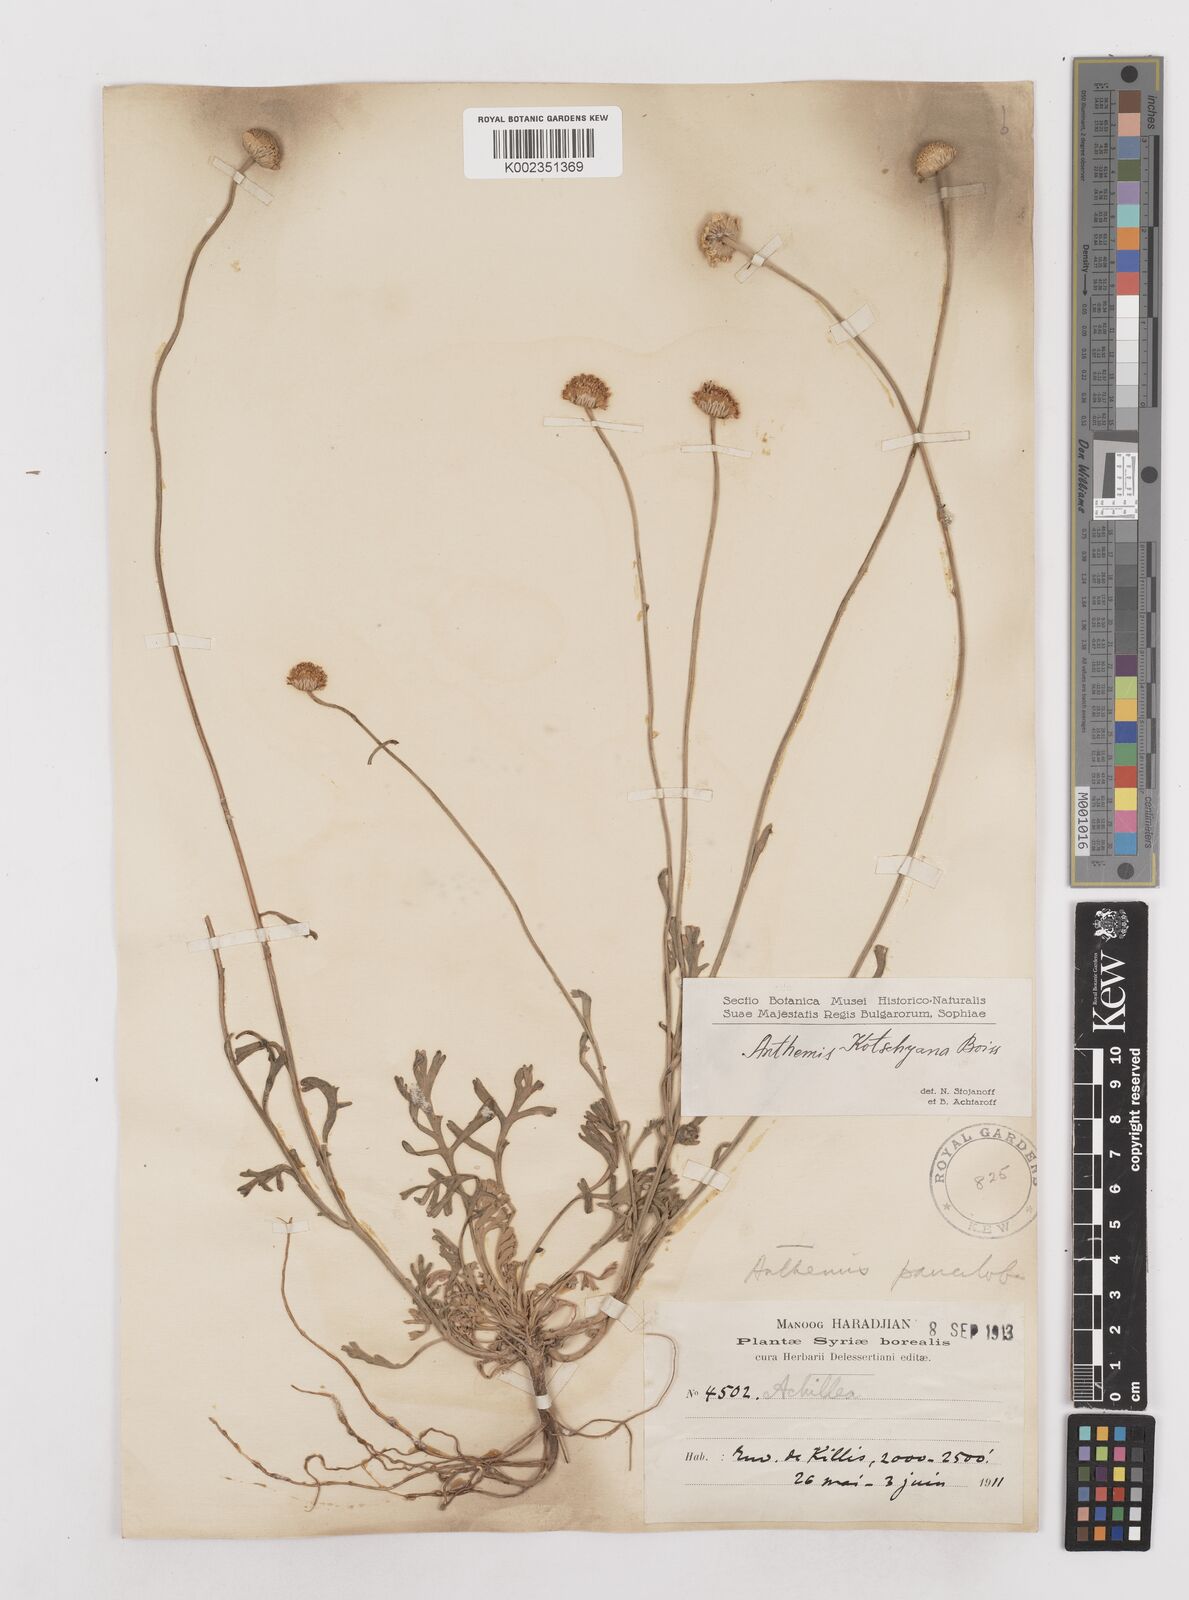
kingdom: Plantae
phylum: Tracheophyta
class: Magnoliopsida
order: Asterales
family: Asteraceae
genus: Anthemis
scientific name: Anthemis kotschyana
